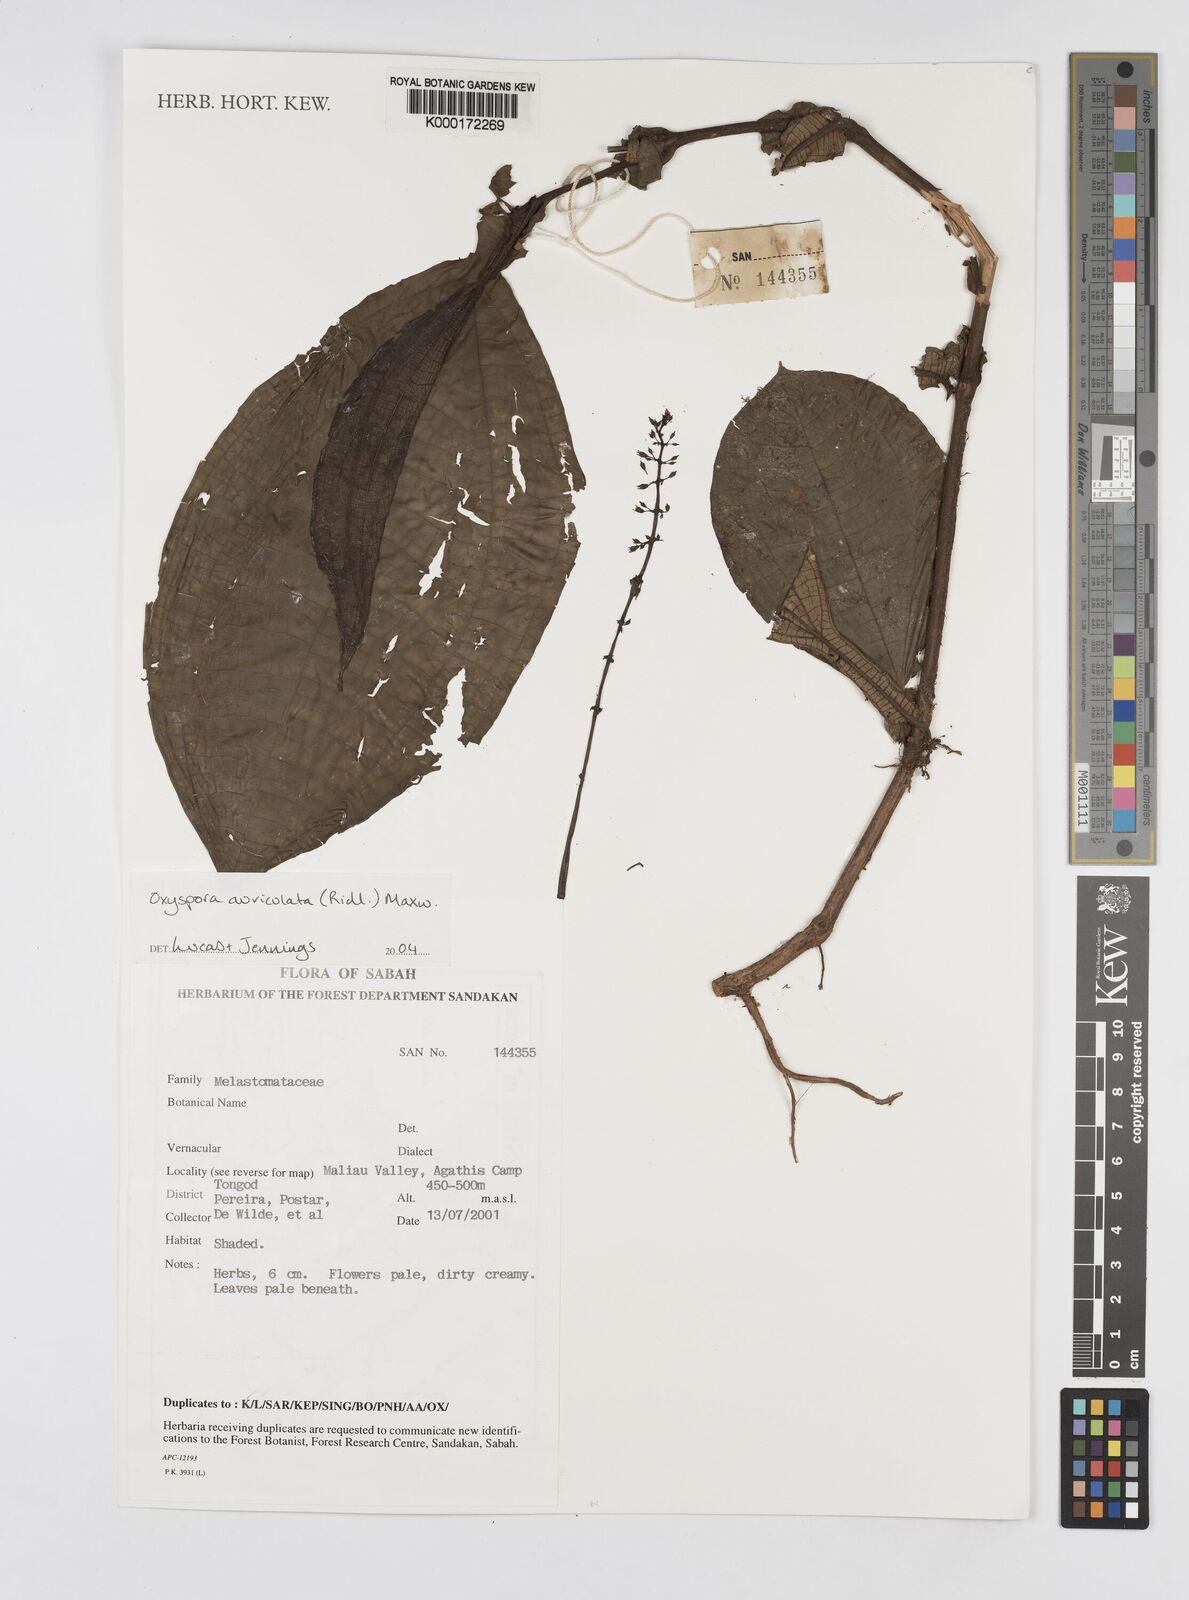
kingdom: Plantae
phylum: Tracheophyta
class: Magnoliopsida
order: Myrtales
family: Melastomataceae
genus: Campimia
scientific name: Campimia auriculata
